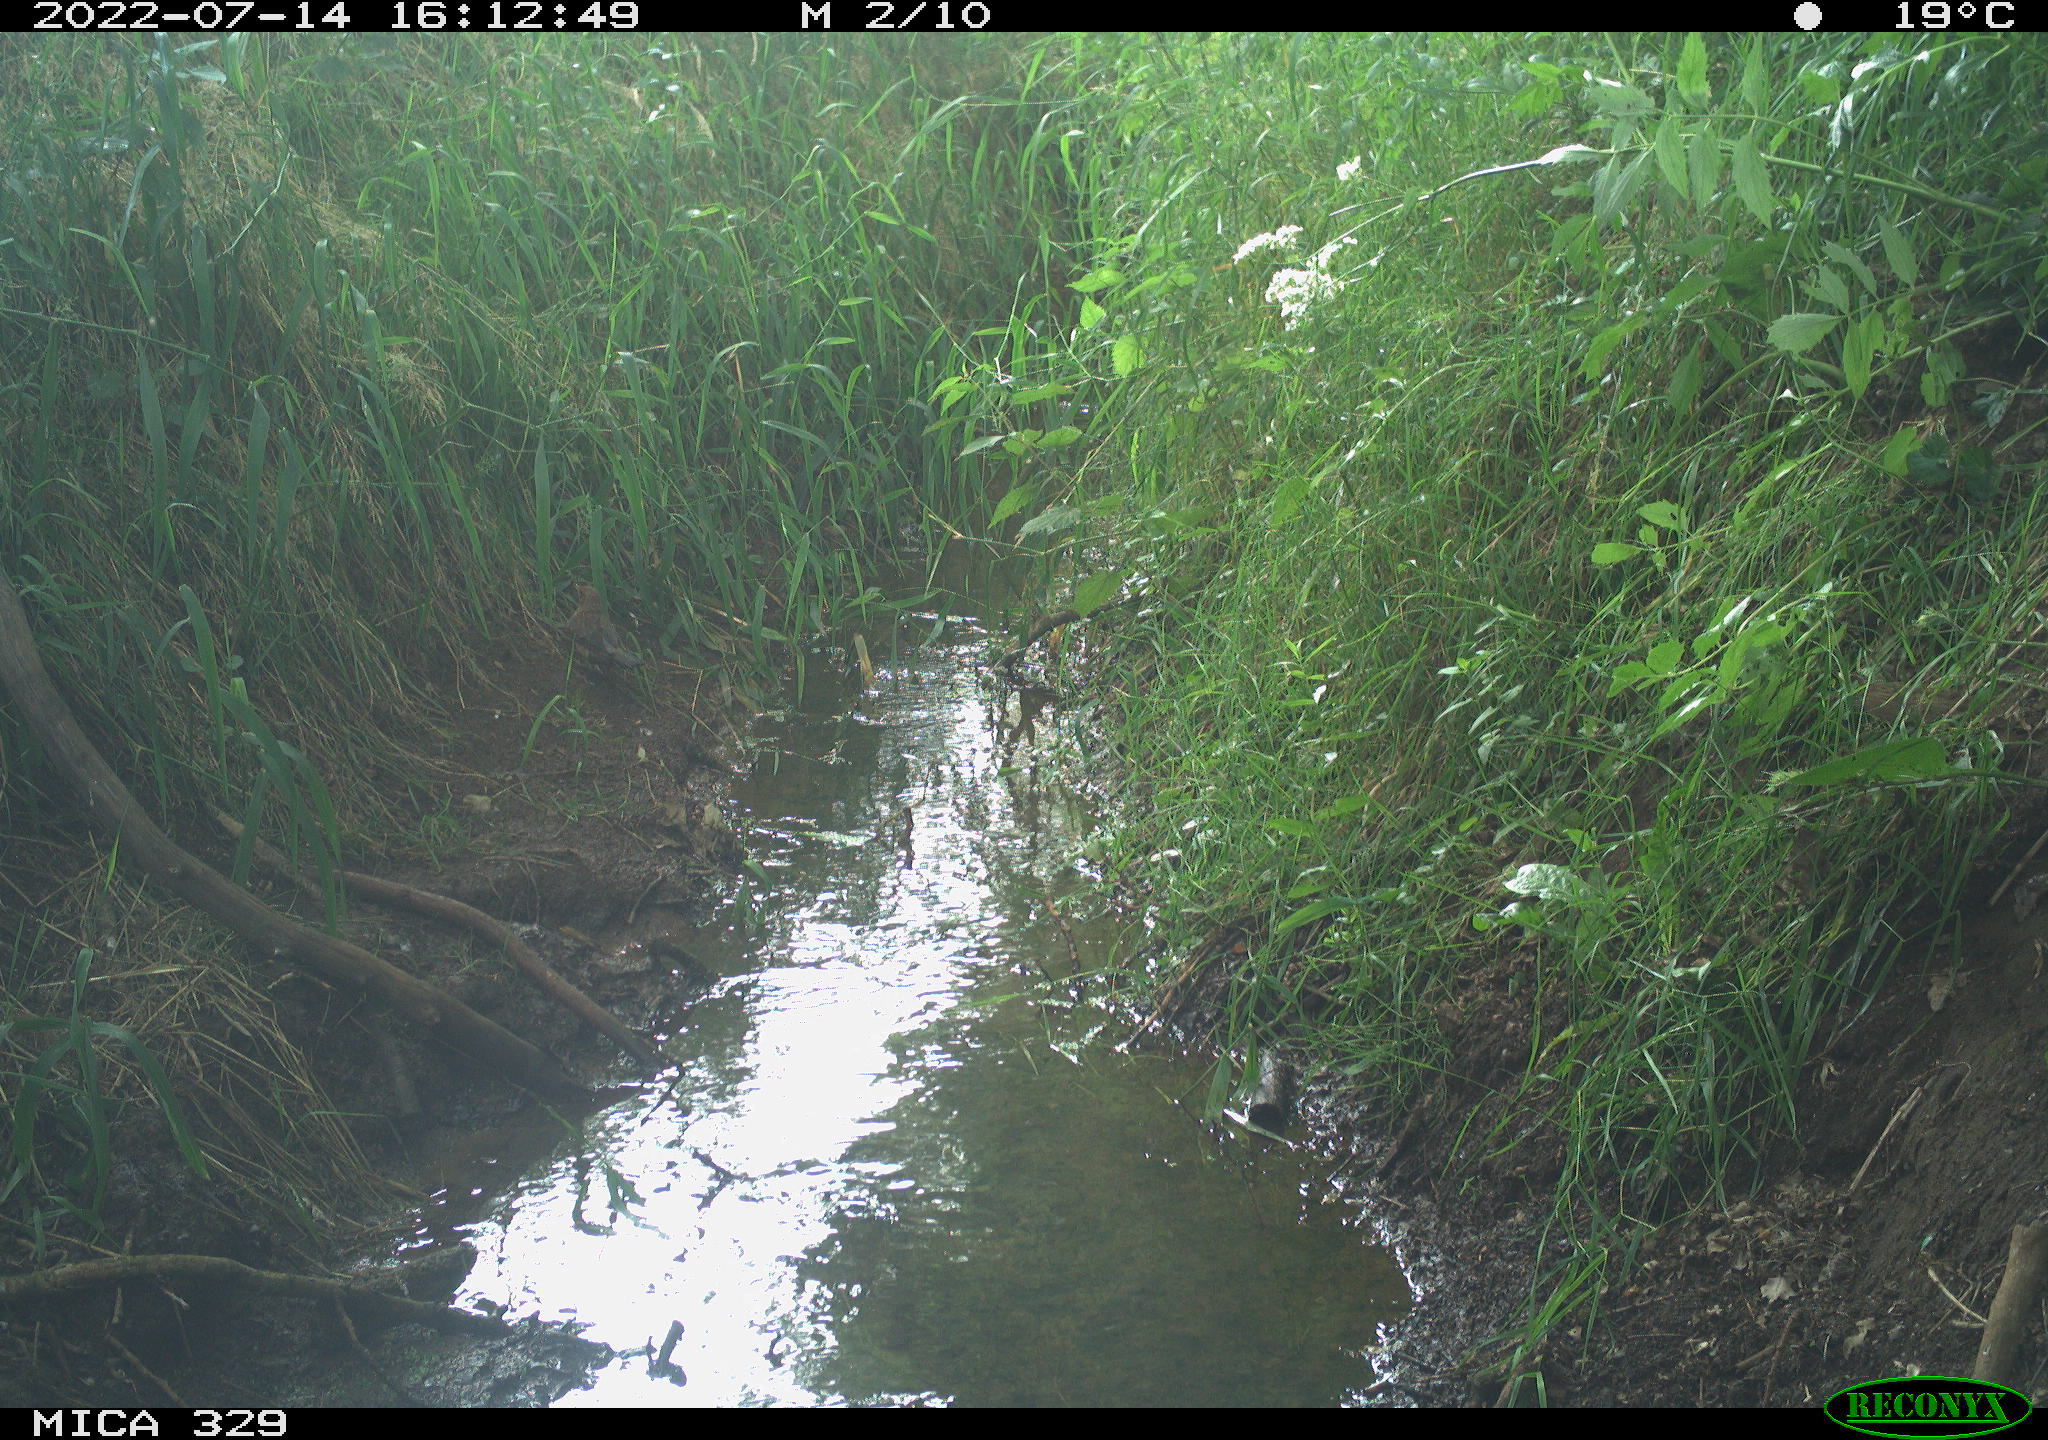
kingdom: Animalia
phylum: Chordata
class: Aves
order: Passeriformes
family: Turdidae
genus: Turdus
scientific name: Turdus merula
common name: Common blackbird
